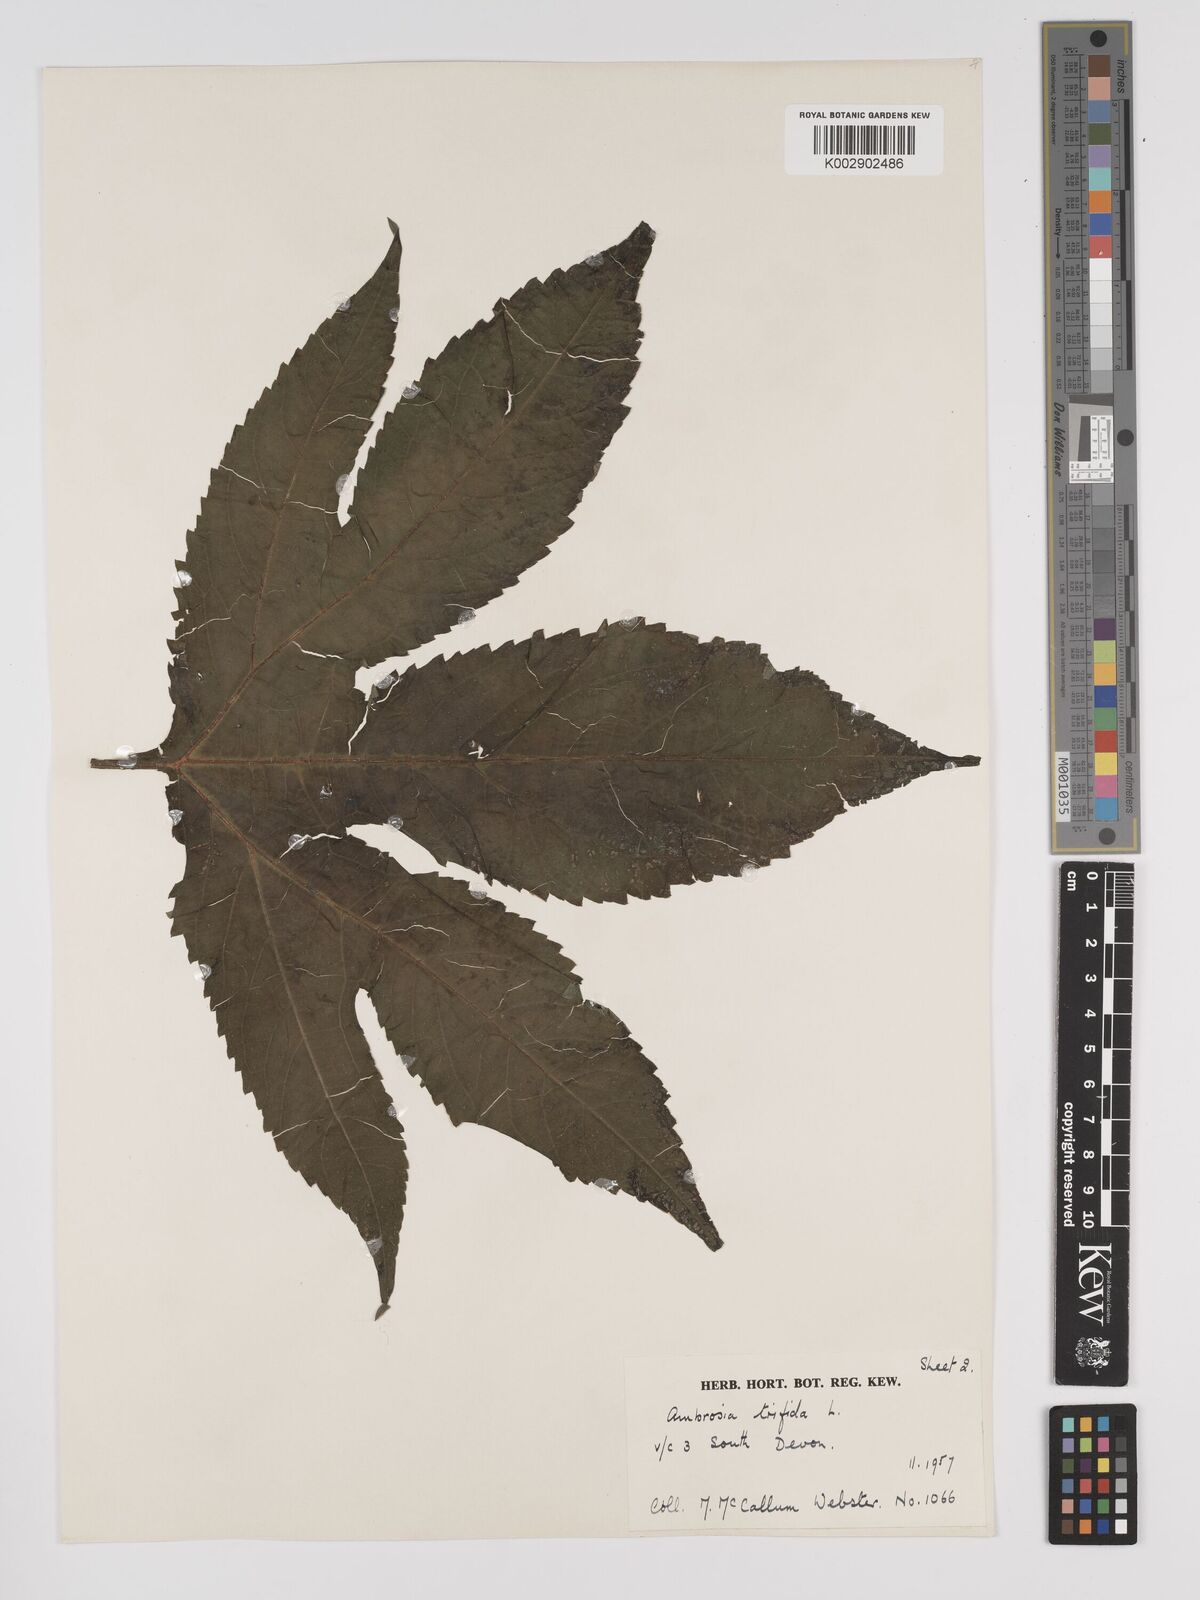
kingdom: Plantae
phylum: Tracheophyta
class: Magnoliopsida
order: Asterales
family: Asteraceae
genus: Ambrosia
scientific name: Ambrosia trifida
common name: Giant ragweed
